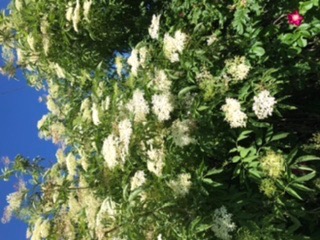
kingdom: Plantae
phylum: Tracheophyta
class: Magnoliopsida
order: Dipsacales
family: Viburnaceae
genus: Sambucus
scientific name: Sambucus nigra
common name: Almindelig hyld
